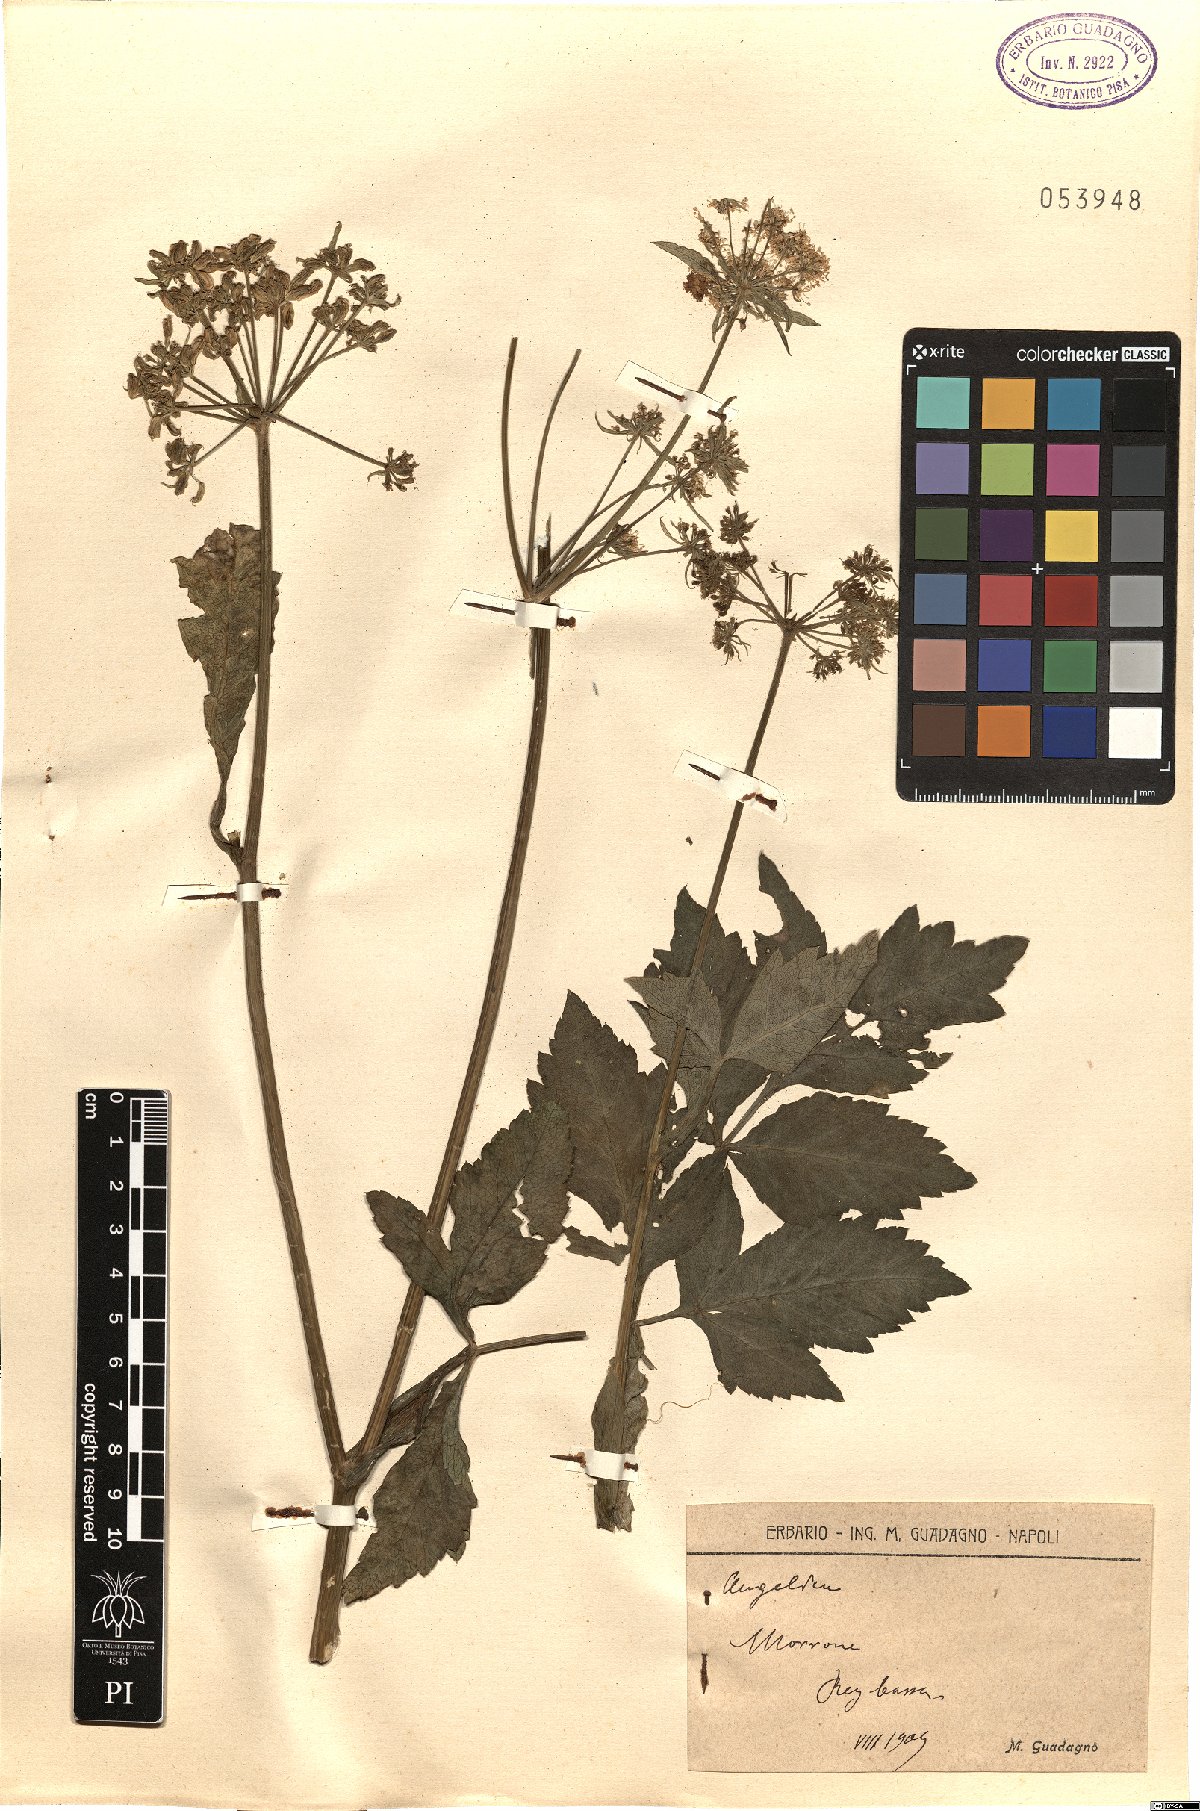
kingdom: Plantae
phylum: Tracheophyta
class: Magnoliopsida
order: Apiales
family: Apiaceae
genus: Angelica
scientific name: Angelica
